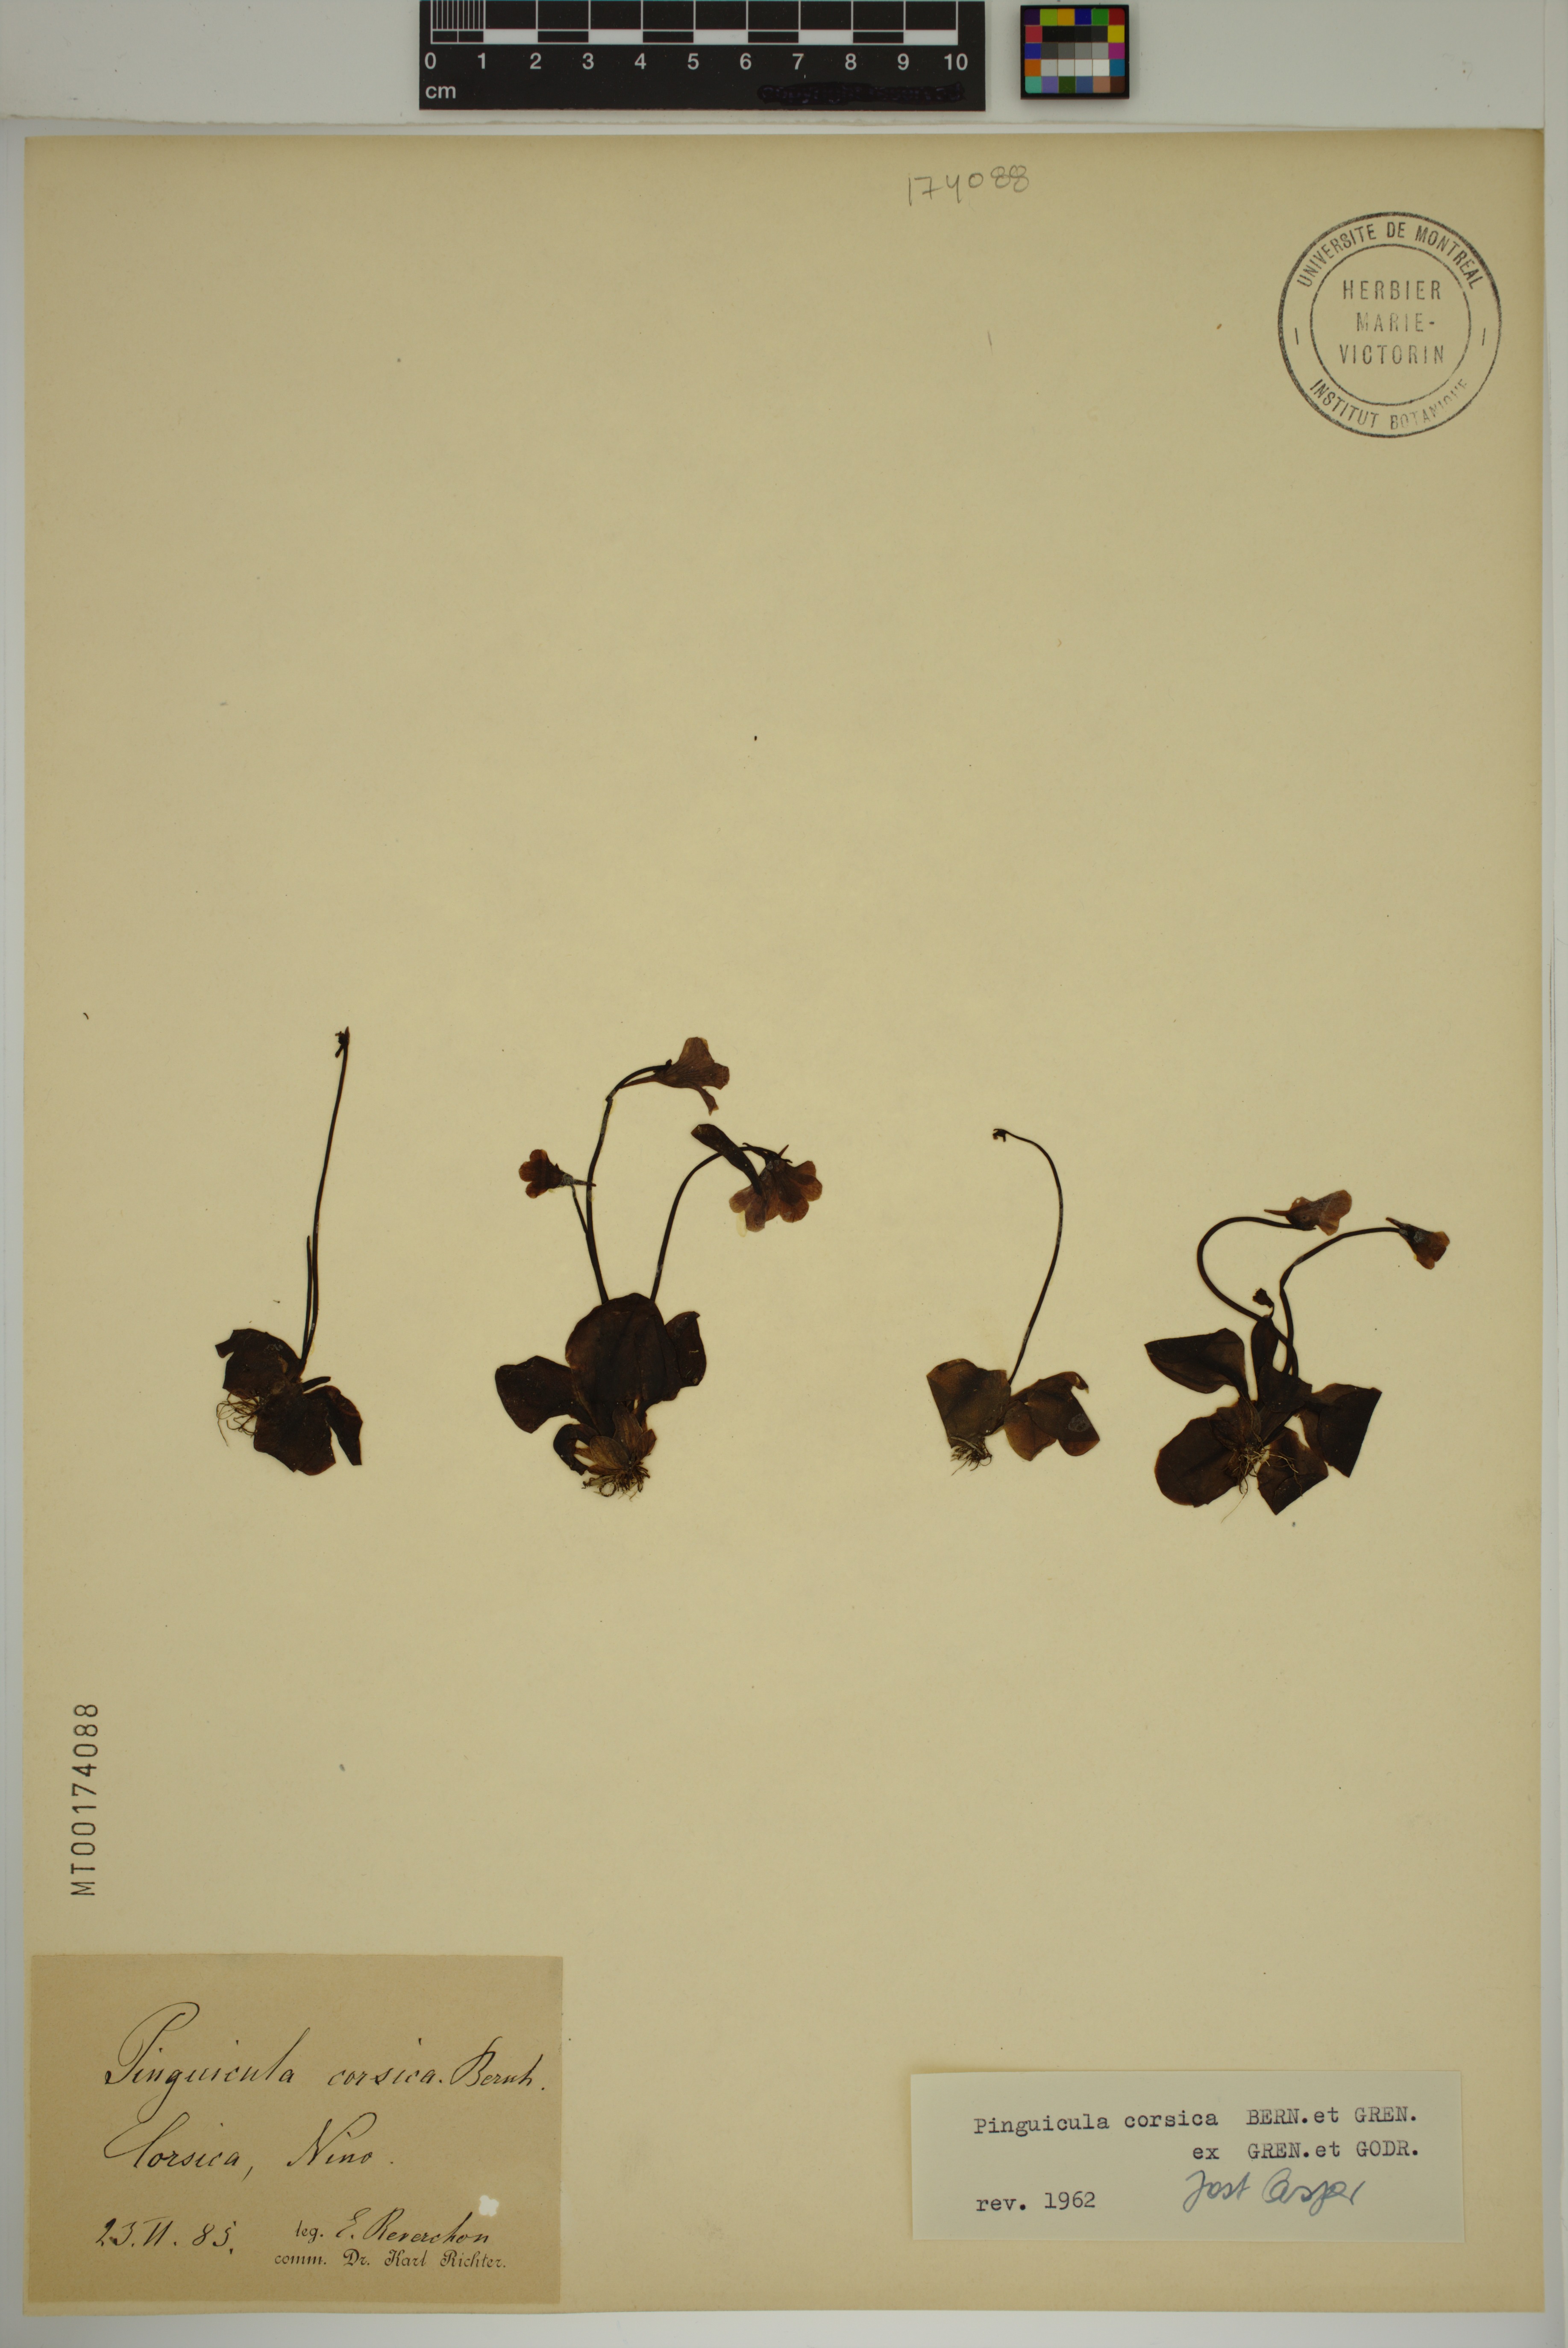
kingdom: Plantae
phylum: Tracheophyta
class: Magnoliopsida
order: Lamiales
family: Lentibulariaceae
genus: Pinguicula
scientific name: Pinguicula corsica
